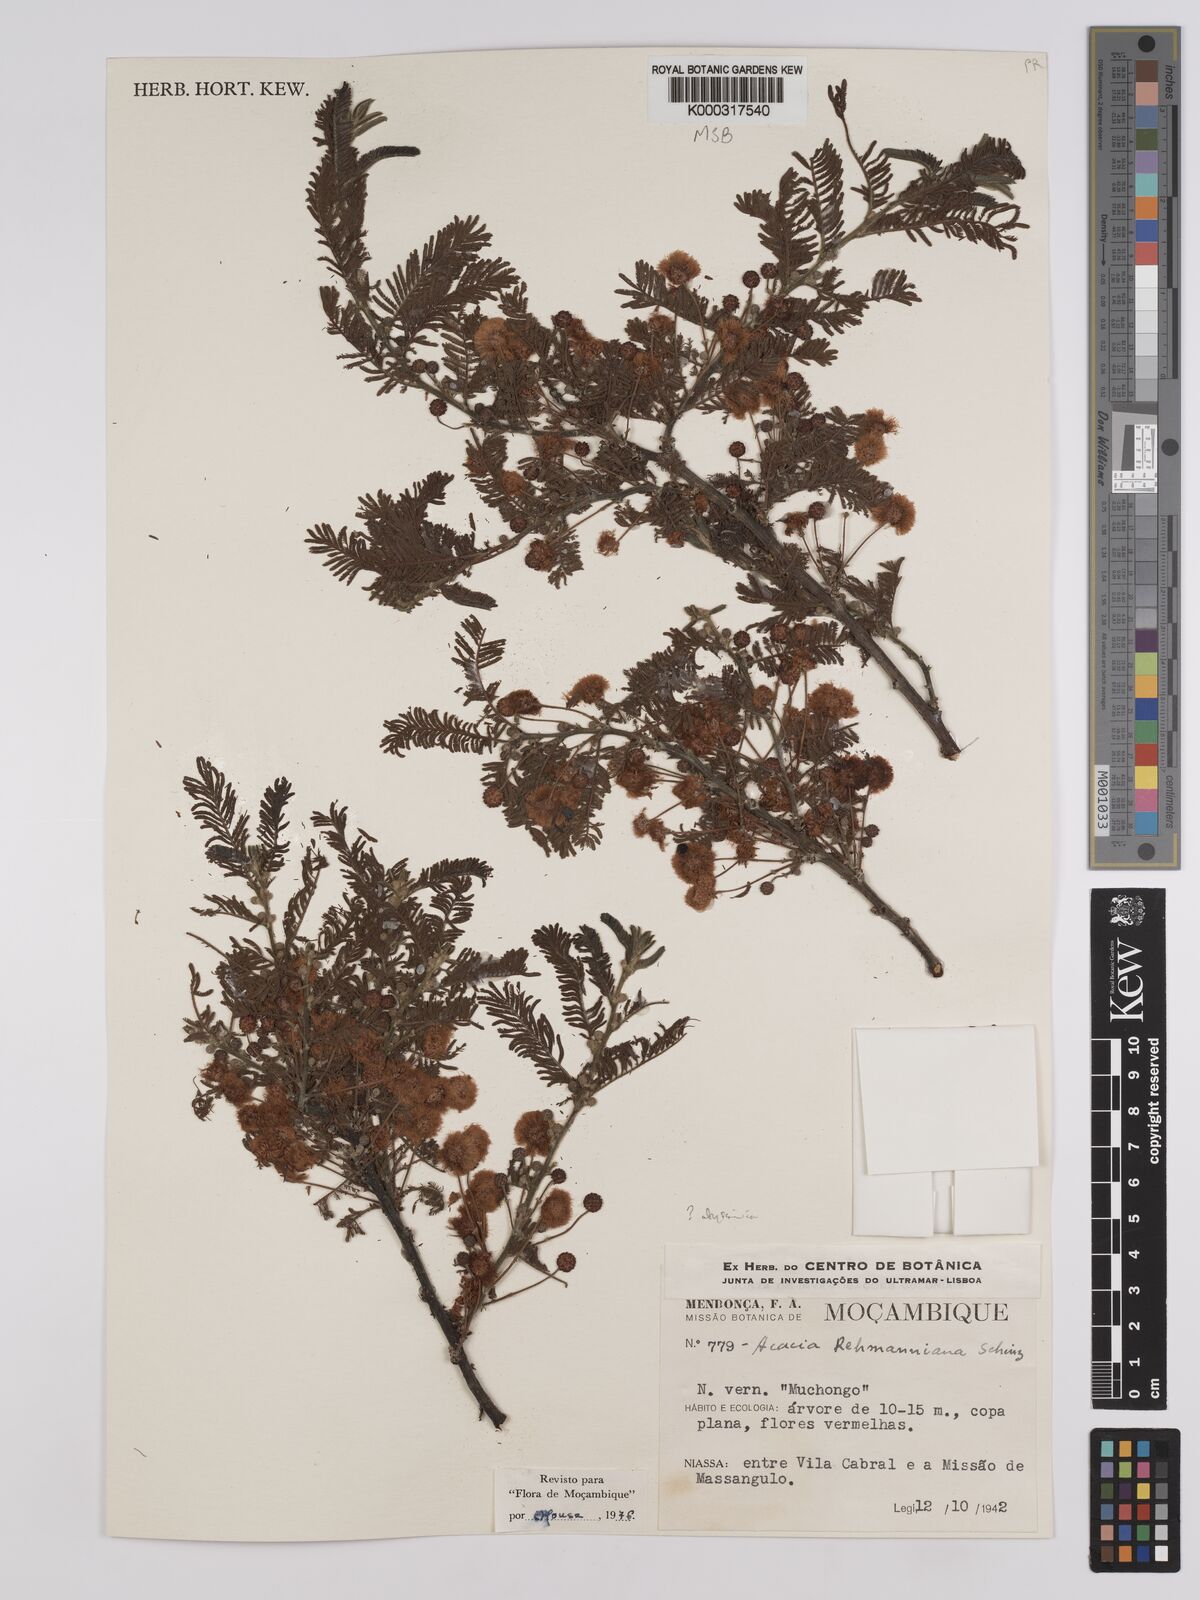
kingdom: Plantae
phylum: Tracheophyta
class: Magnoliopsida
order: Fabales
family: Fabaceae
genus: Vachellia
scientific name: Vachellia rehmanniana
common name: Silky thorn
